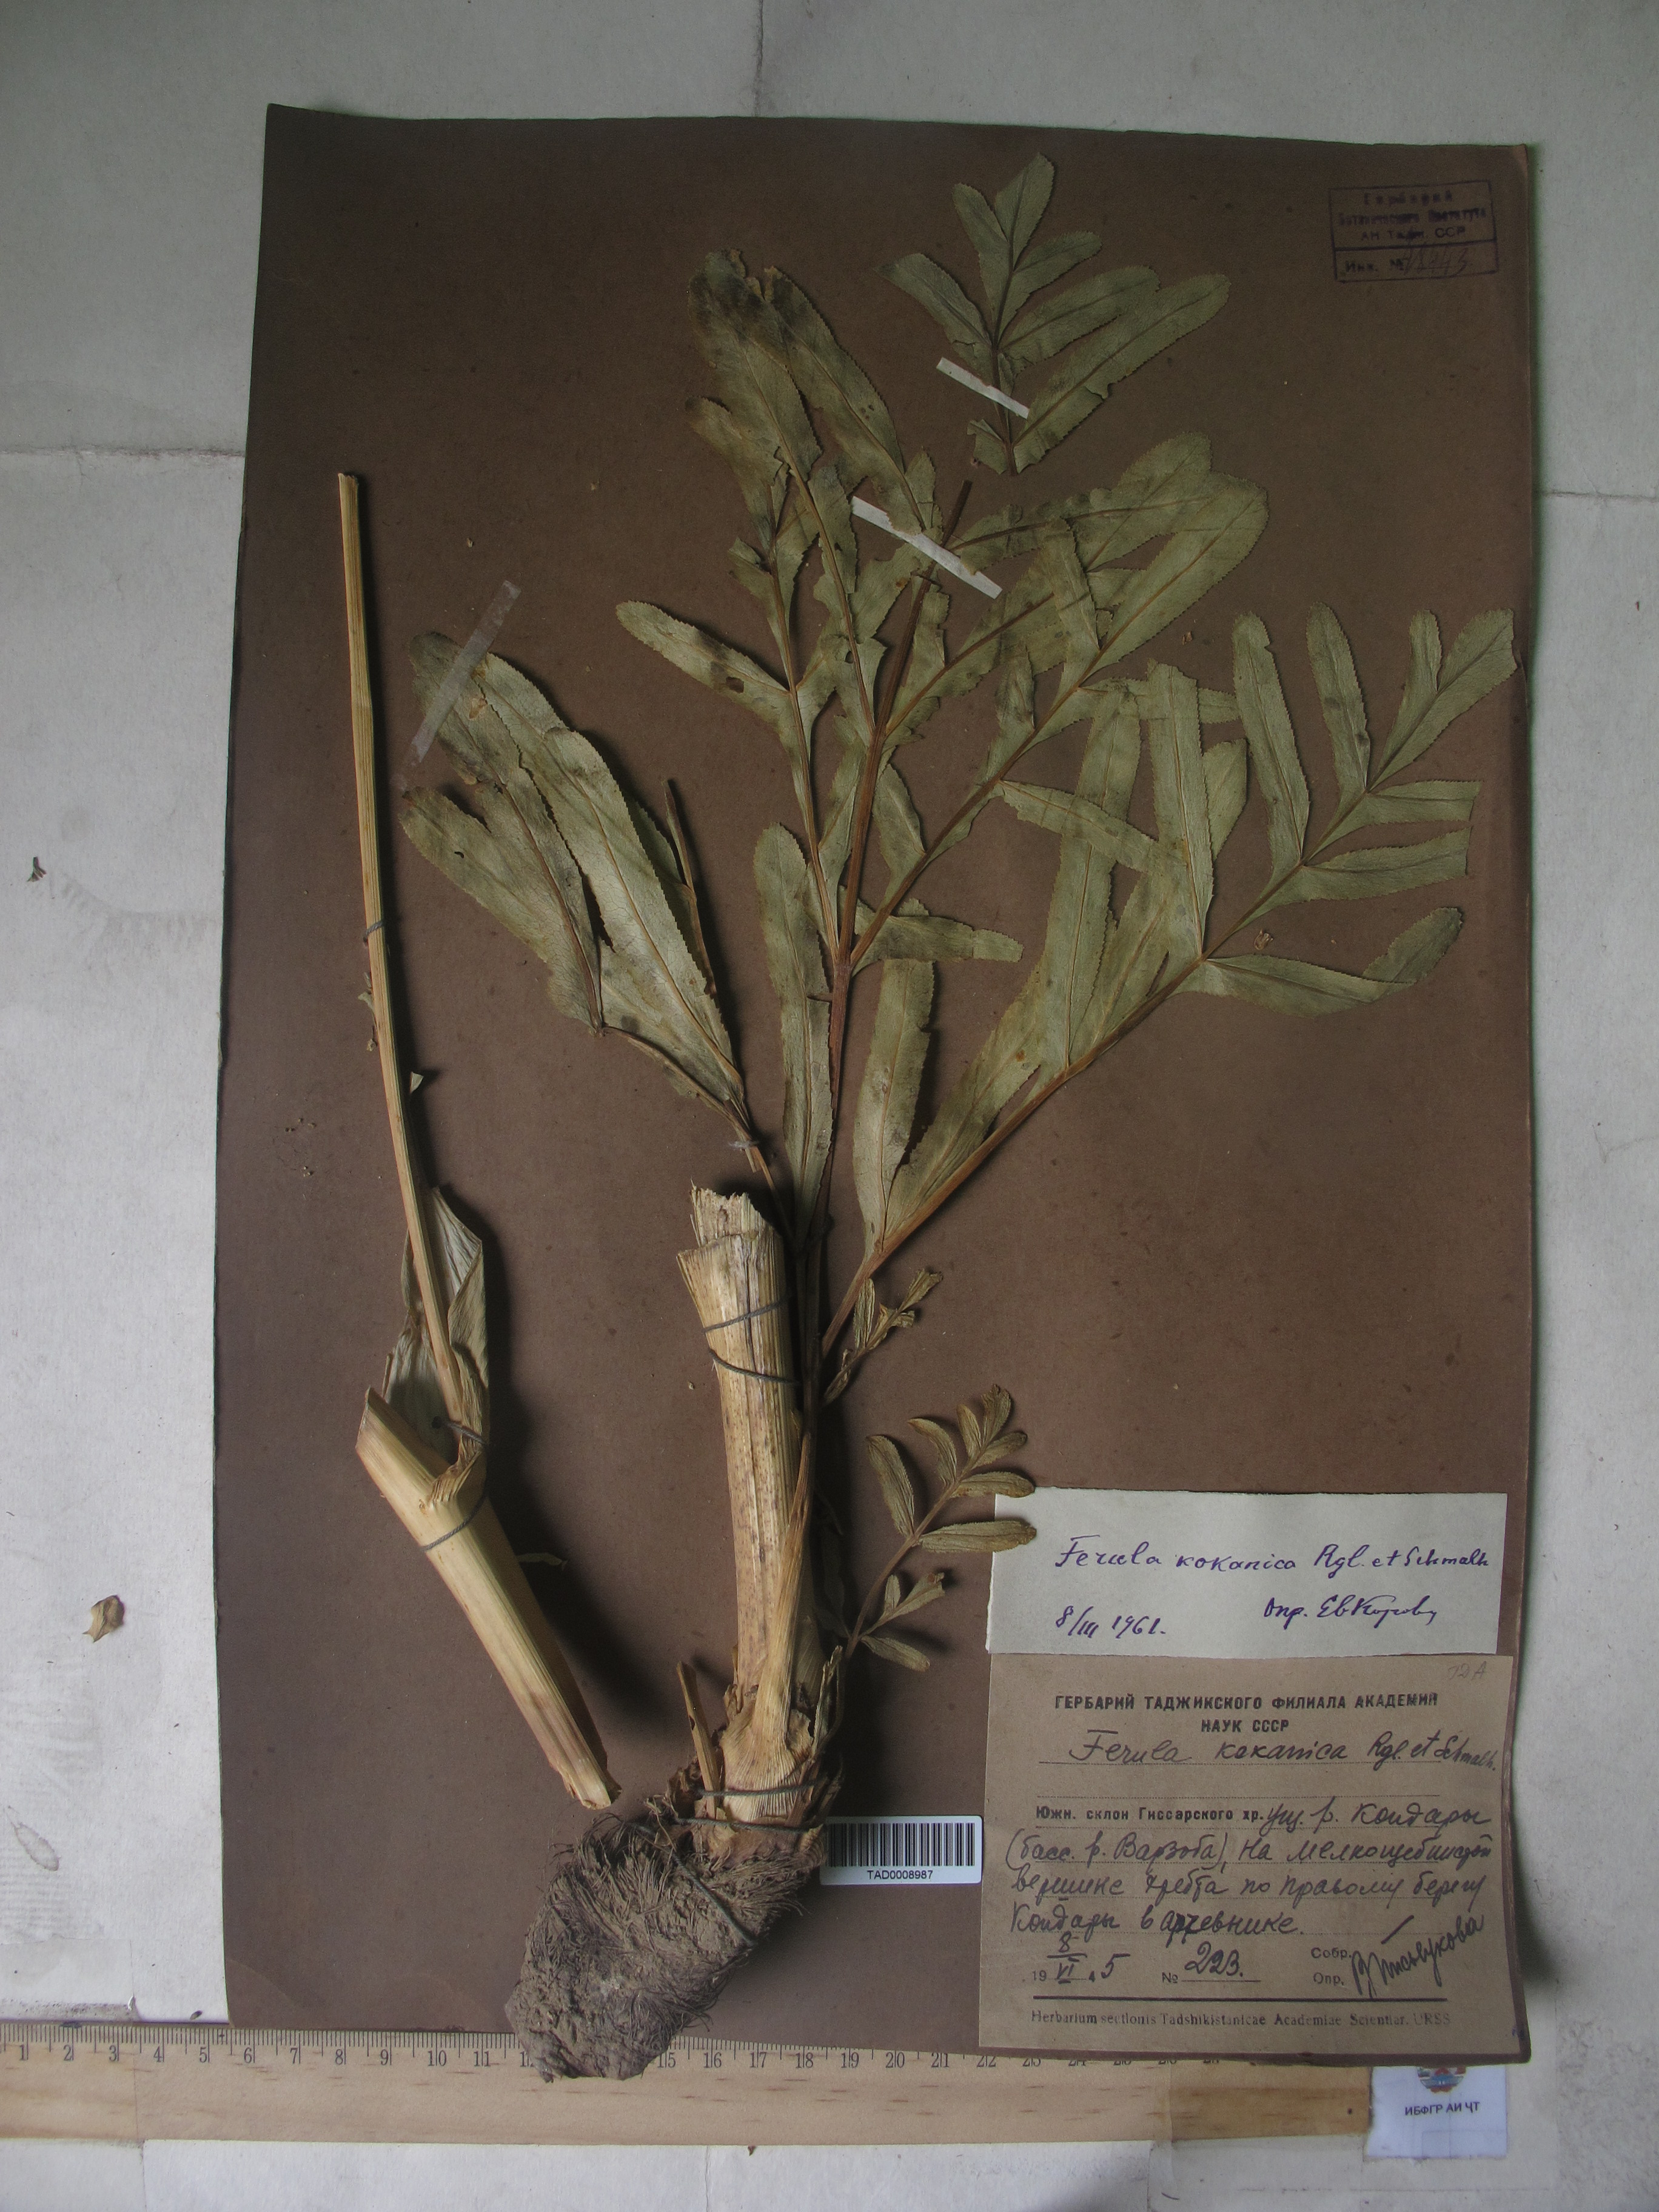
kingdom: Plantae
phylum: Tracheophyta
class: Magnoliopsida
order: Apiales
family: Apiaceae
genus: Ferula
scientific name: Ferula kokanica
